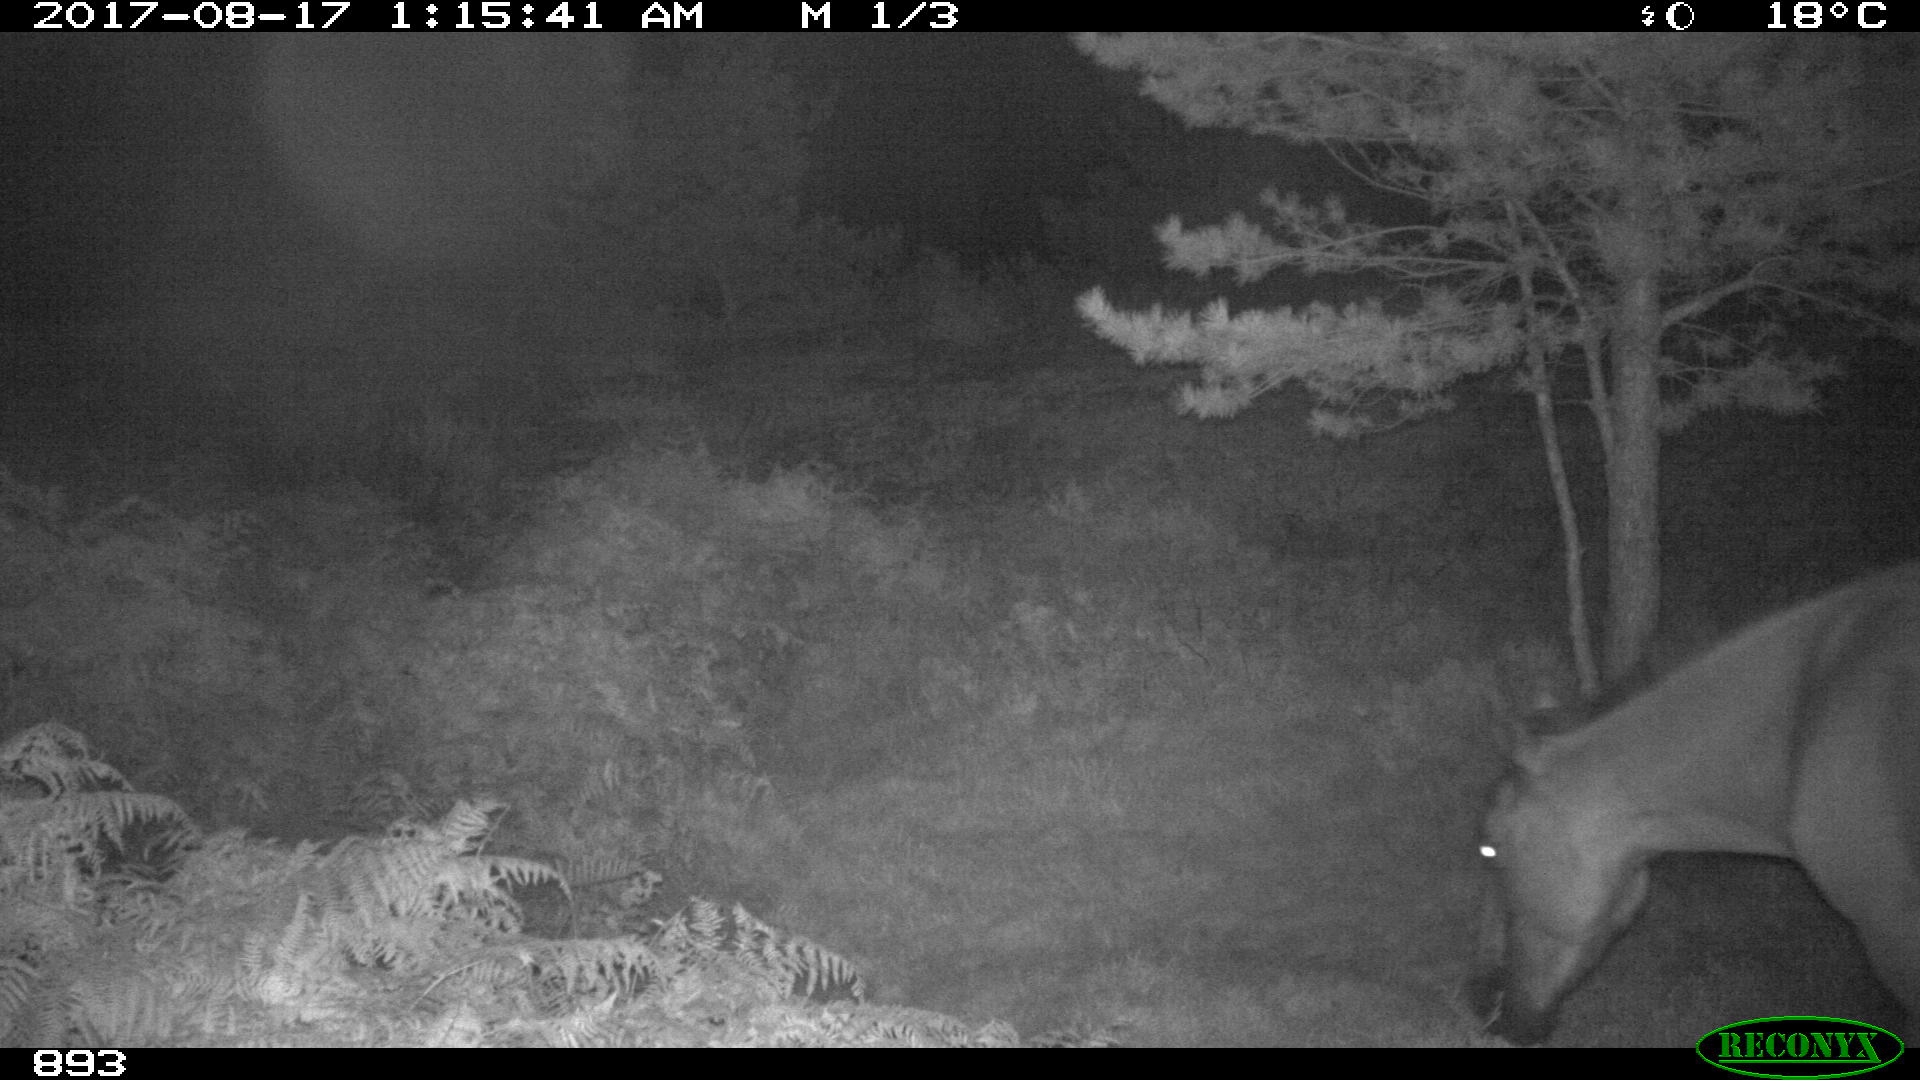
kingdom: Animalia
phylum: Chordata
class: Mammalia
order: Perissodactyla
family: Equidae
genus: Equus
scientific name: Equus caballus
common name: Horse
